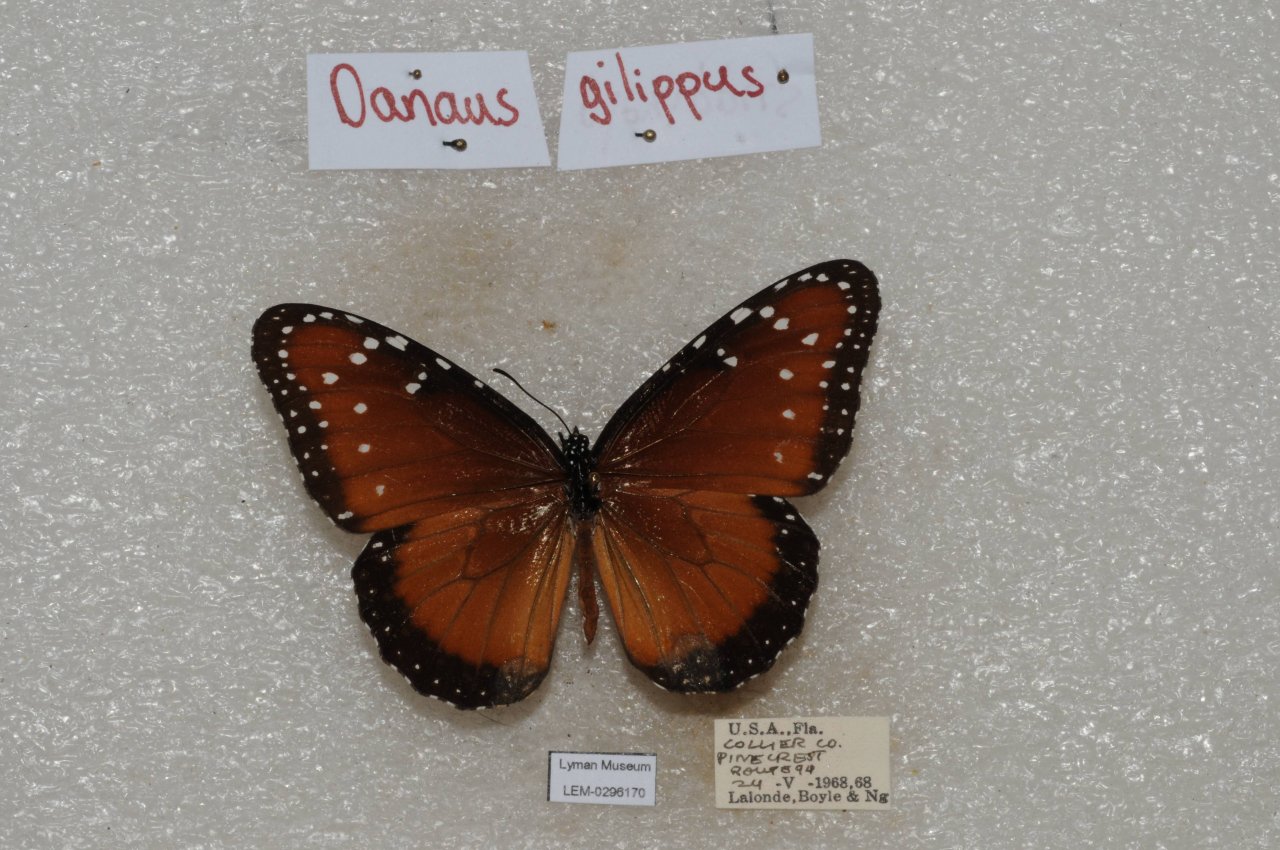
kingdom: Animalia
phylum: Arthropoda
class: Insecta
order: Lepidoptera
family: Nymphalidae
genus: Danaus
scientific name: Danaus gilippus
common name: Queen
